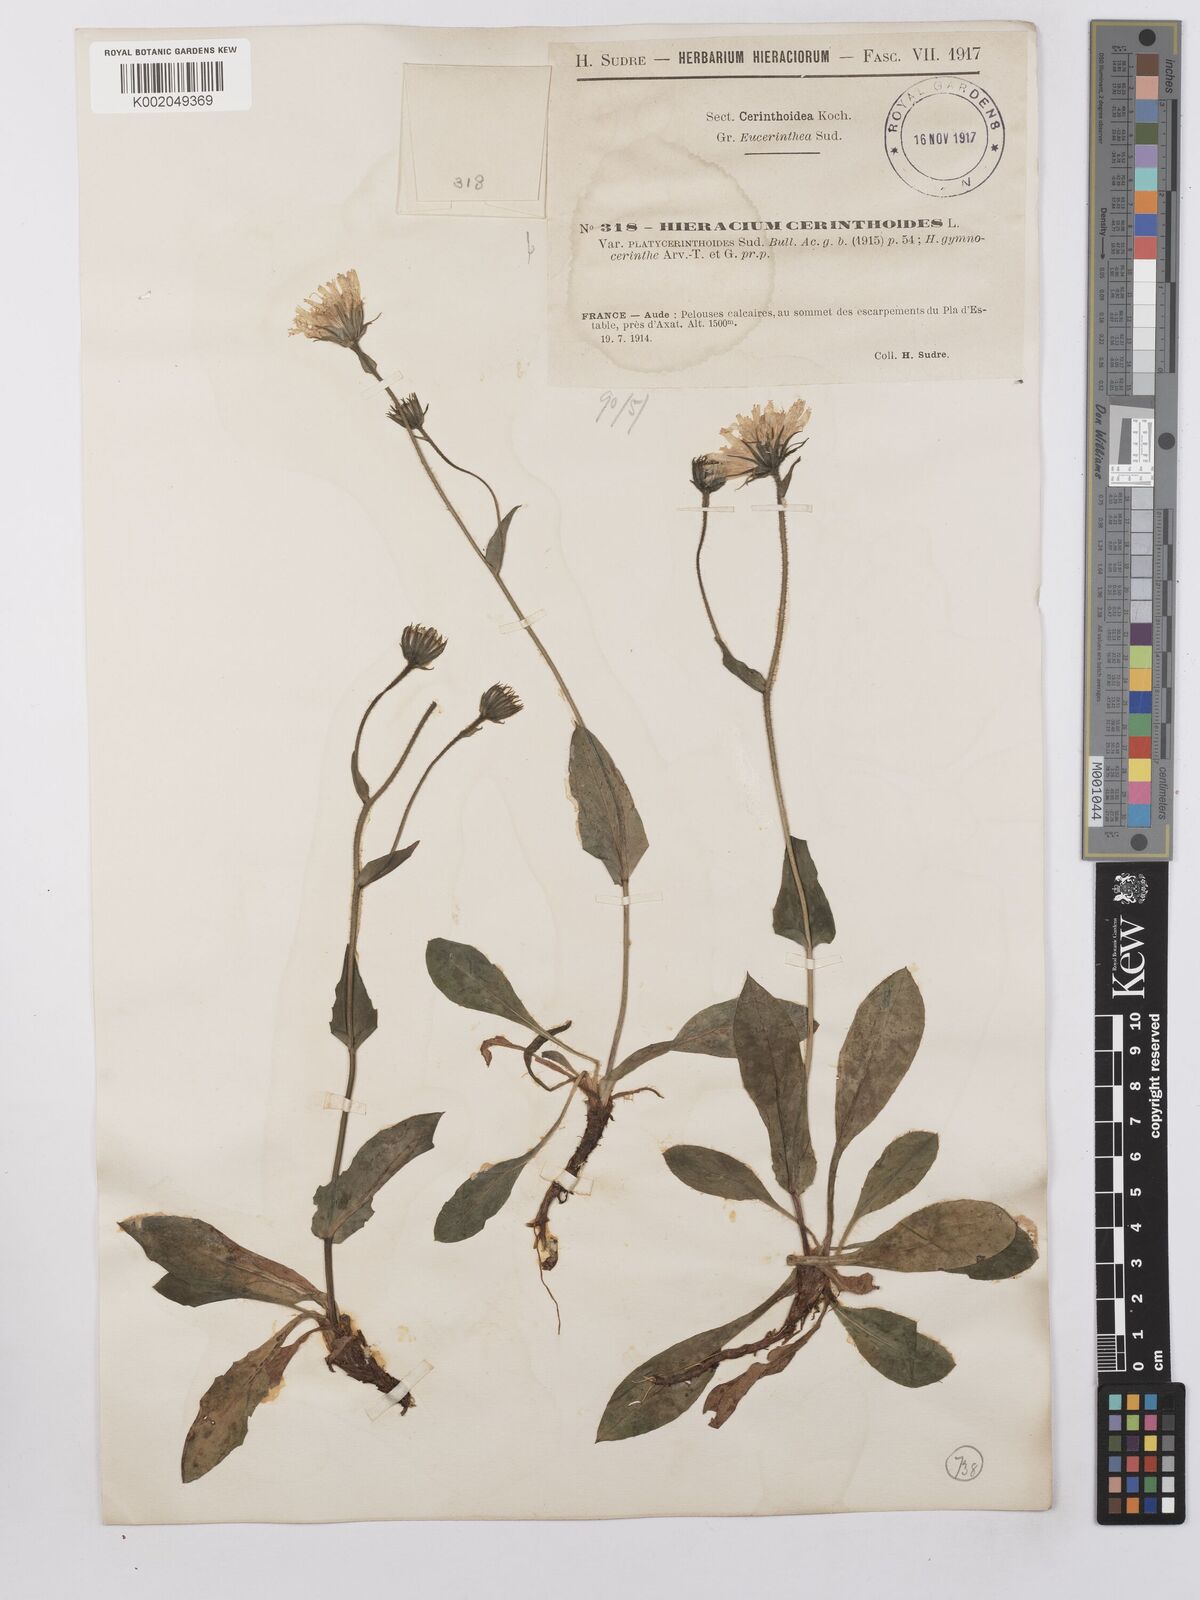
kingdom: Plantae
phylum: Tracheophyta
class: Magnoliopsida
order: Asterales
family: Asteraceae
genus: Hieracium
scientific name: Hieracium cerinthoides
